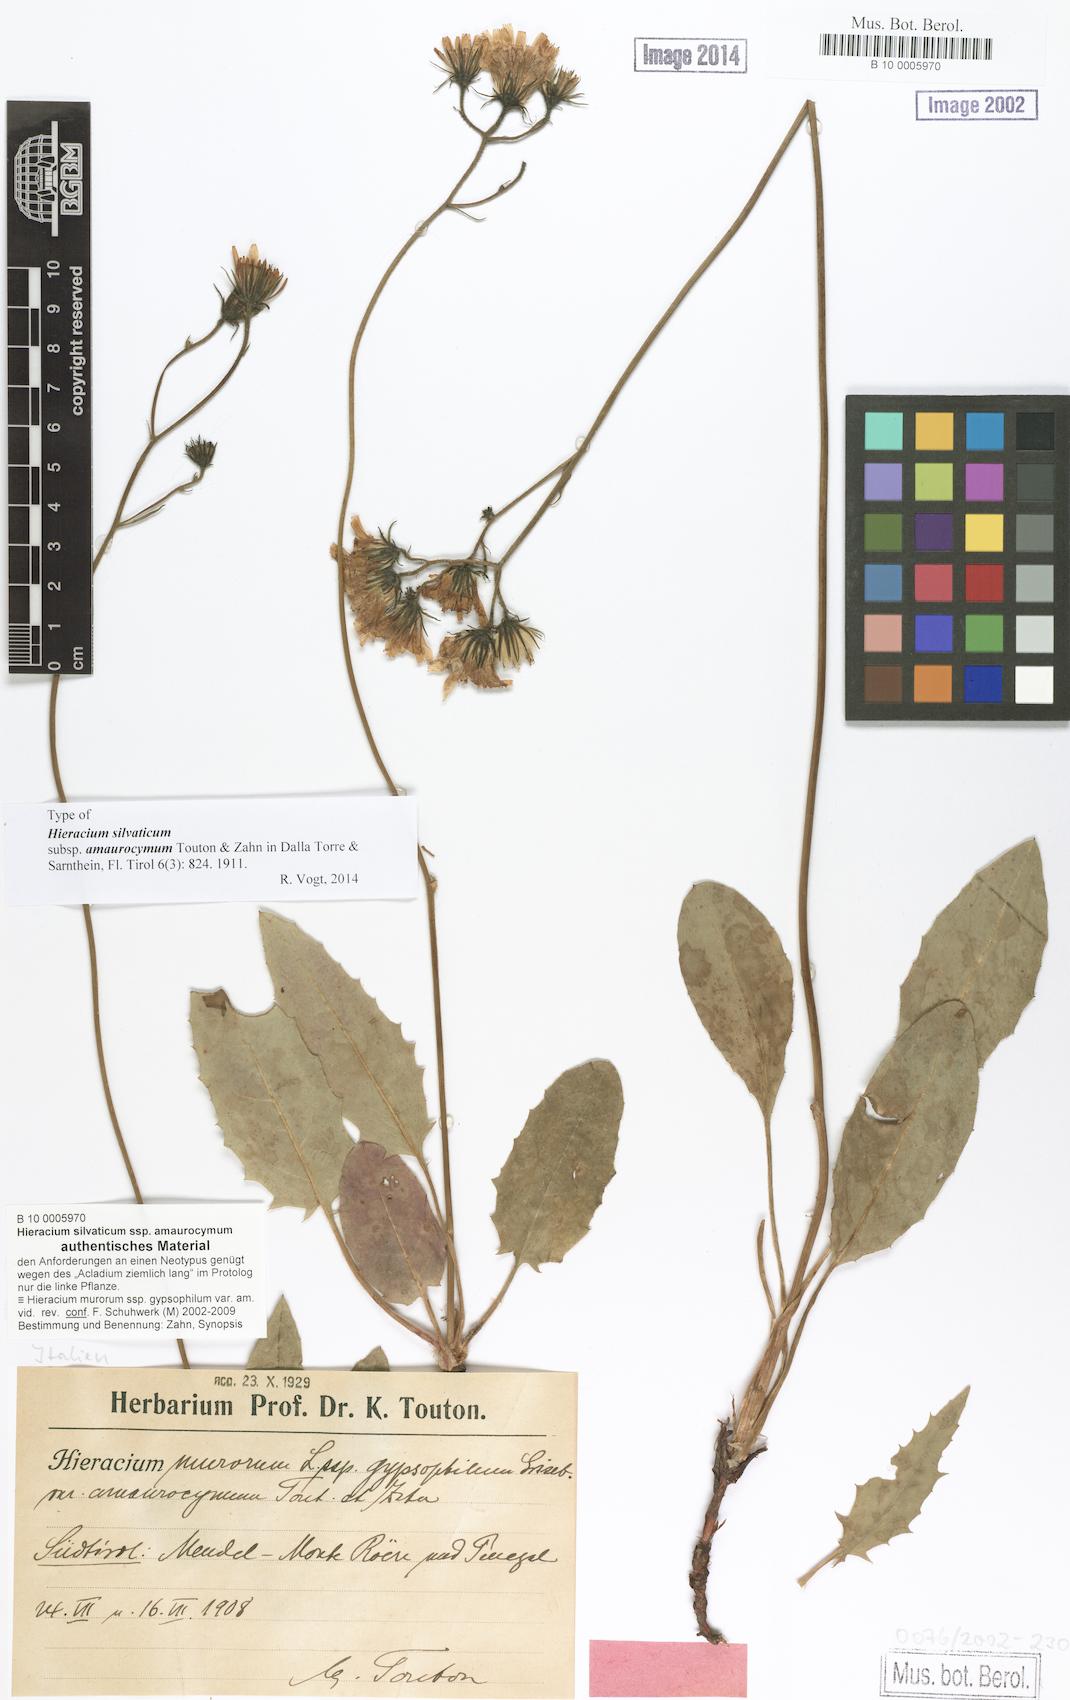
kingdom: Plantae
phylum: Tracheophyta
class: Magnoliopsida
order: Asterales
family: Asteraceae
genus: Hieracium
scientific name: Hieracium murorum
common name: Wall hawkweed
